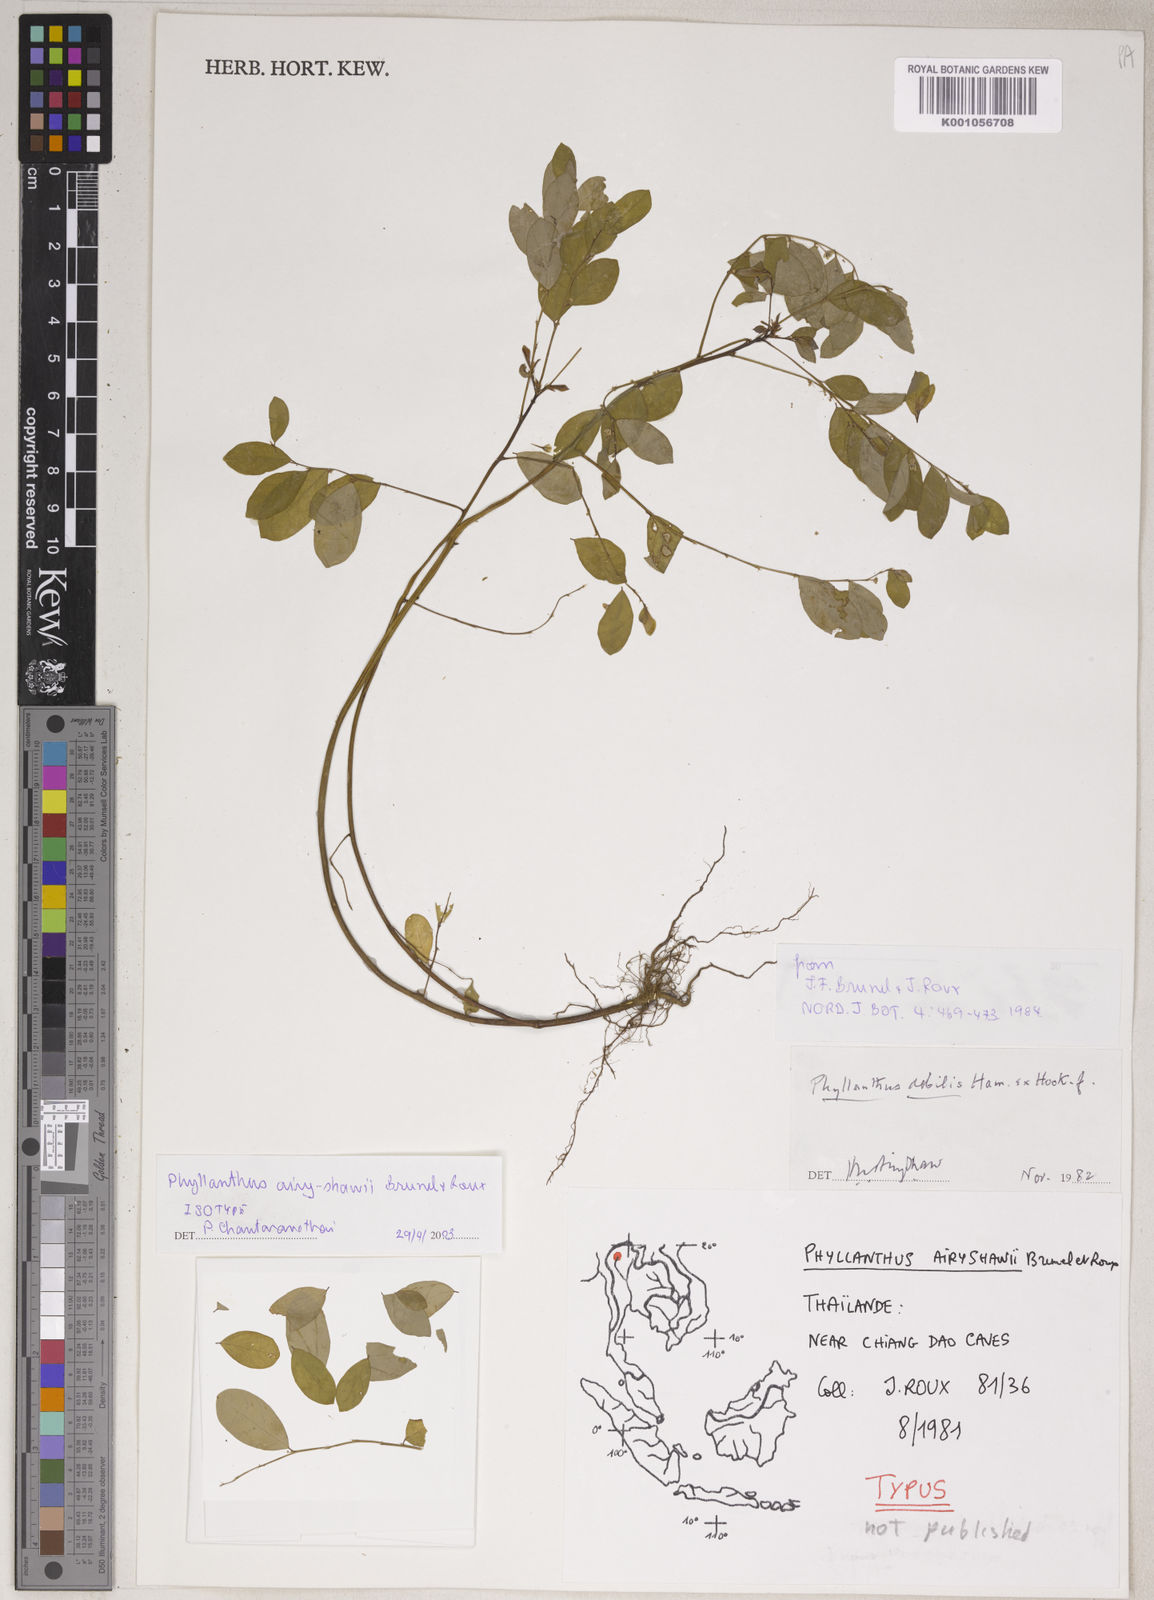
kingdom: Plantae
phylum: Tracheophyta
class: Magnoliopsida
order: Malpighiales
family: Phyllanthaceae
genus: Phyllanthus
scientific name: Phyllanthus rheedei
